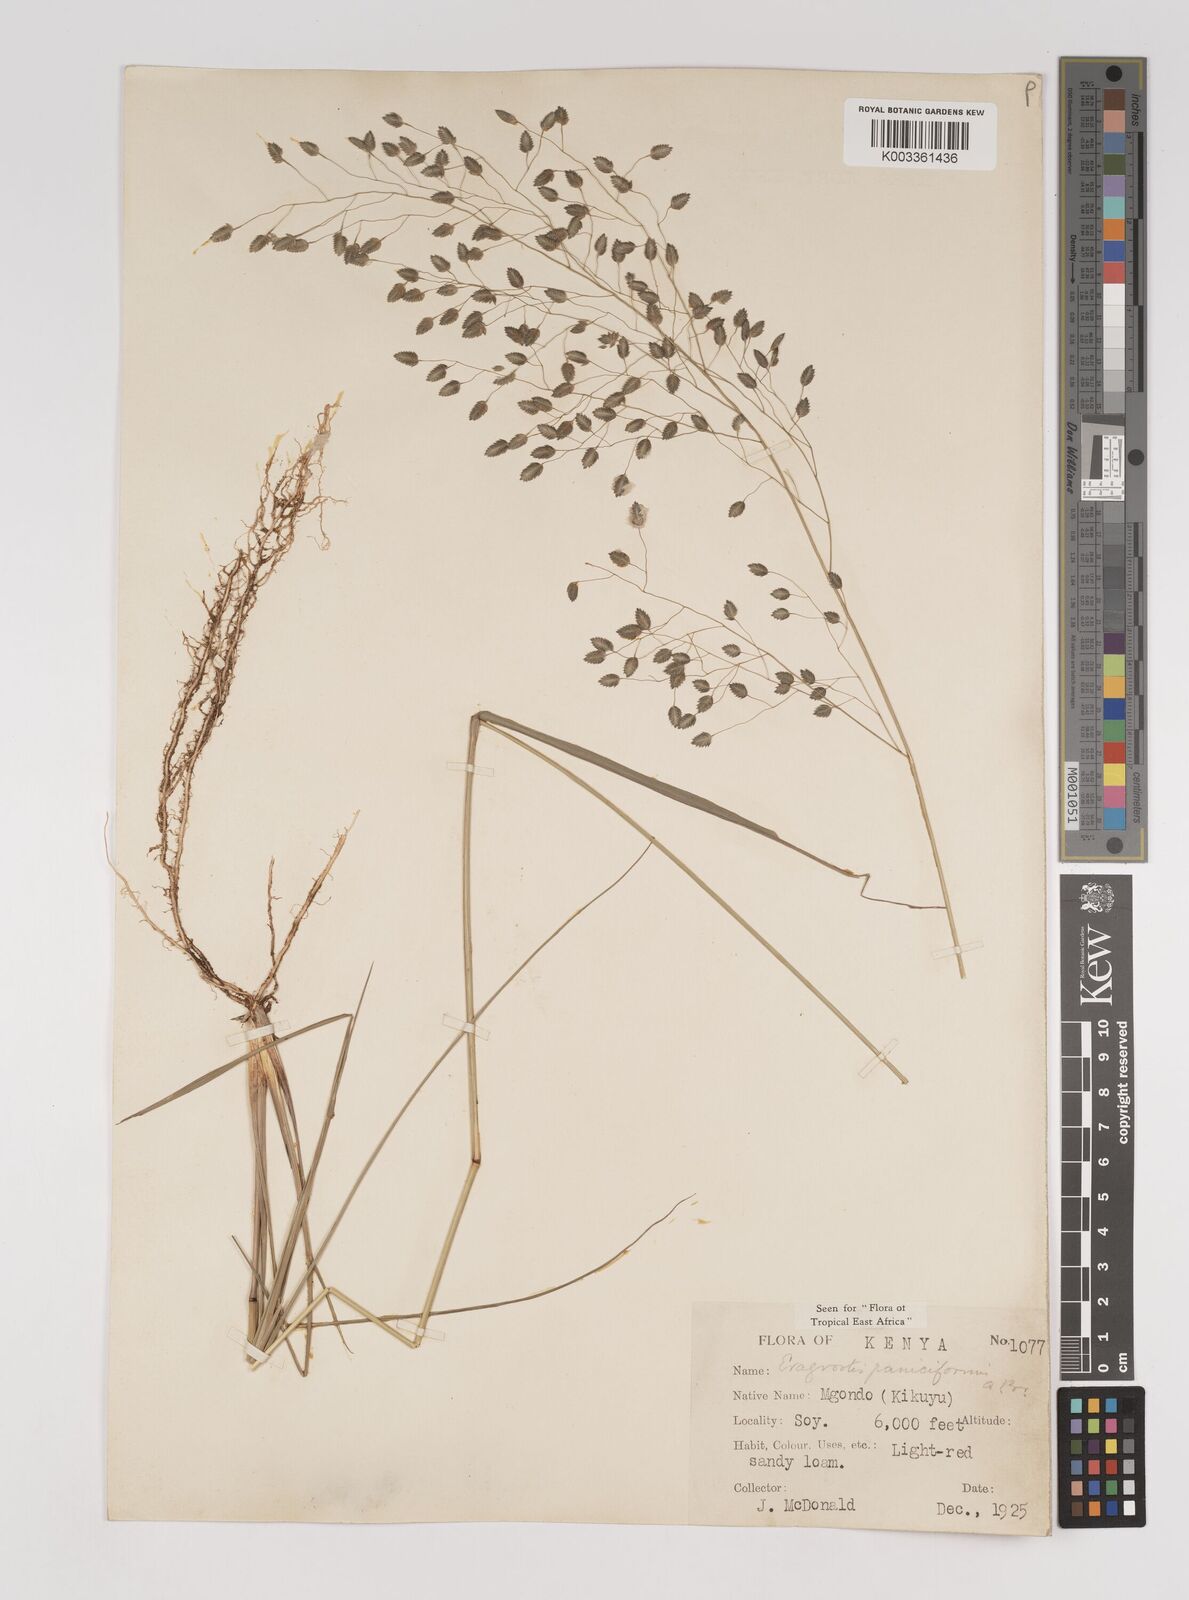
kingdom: Plantae
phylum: Tracheophyta
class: Liliopsida
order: Poales
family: Poaceae
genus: Eragrostis
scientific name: Eragrostis paniciformis
